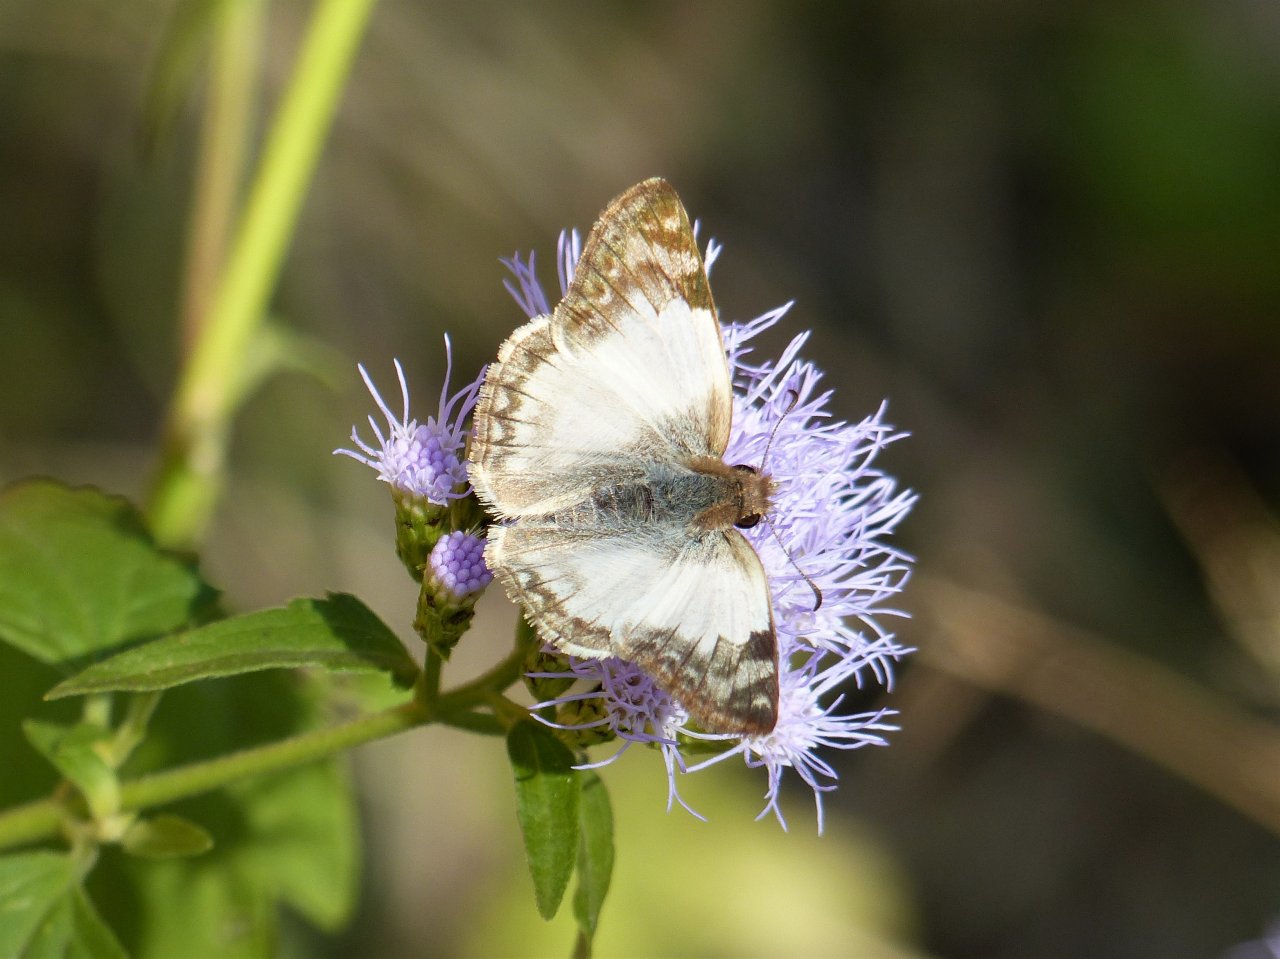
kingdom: Animalia
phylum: Arthropoda
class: Insecta
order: Lepidoptera
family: Hesperiidae
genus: Heliopetes
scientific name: Heliopetes laviana
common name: Laviana White-Skipper
